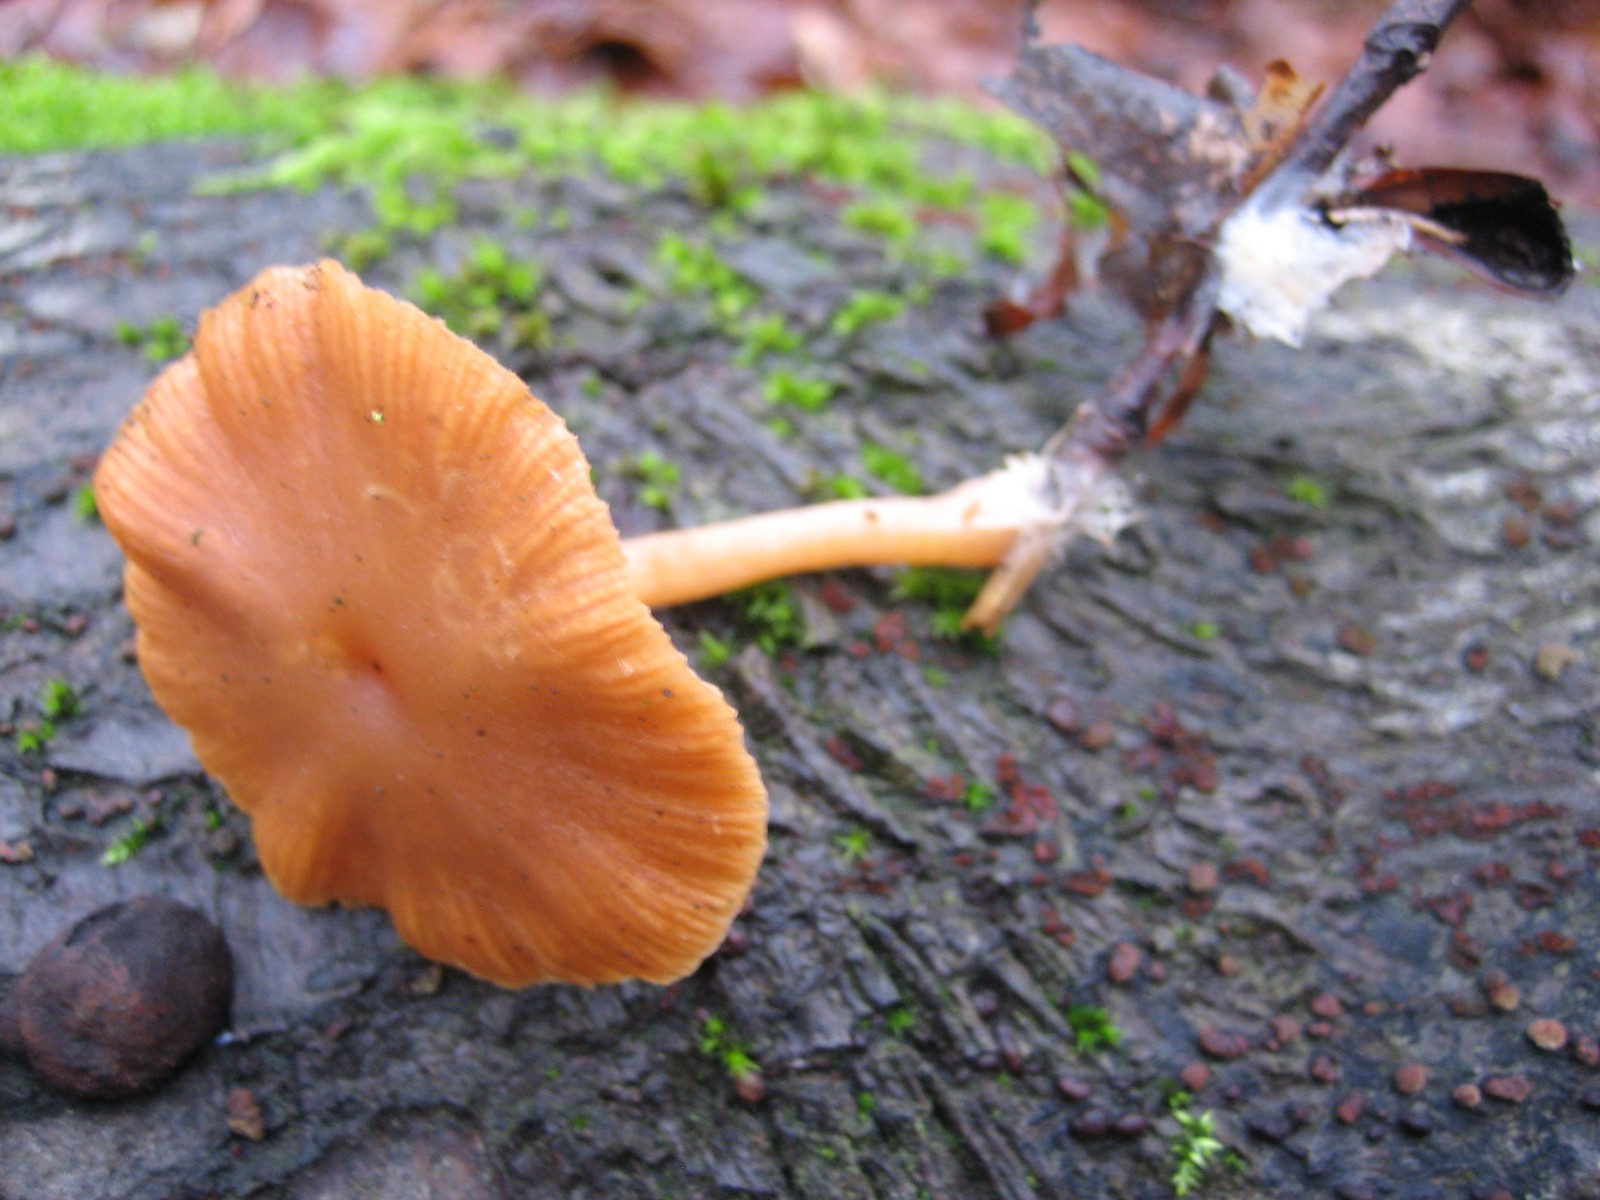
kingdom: Fungi
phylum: Basidiomycota
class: Agaricomycetes
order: Agaricales
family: Tubariaceae
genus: Tubaria
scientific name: Tubaria furfuracea
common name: kliddet fnughat
